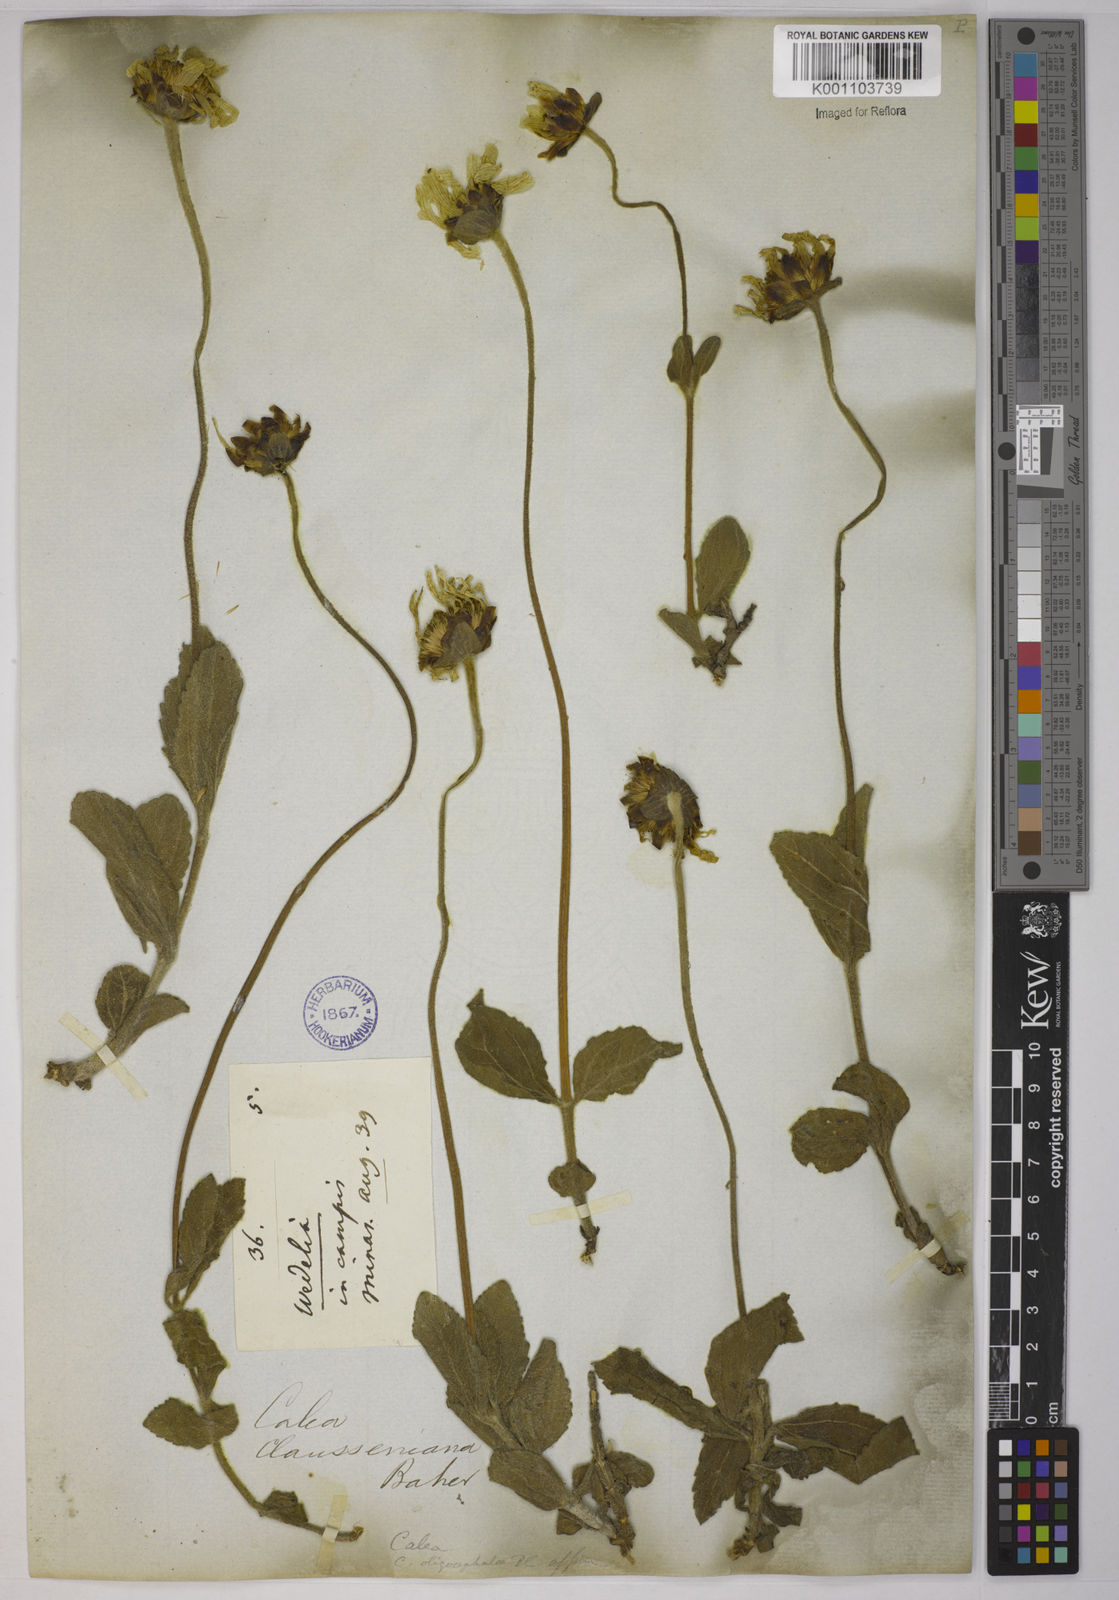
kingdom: Plantae
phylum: Tracheophyta
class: Magnoliopsida
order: Asterales
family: Asteraceae
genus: Calea
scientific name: Calea clausseniana
